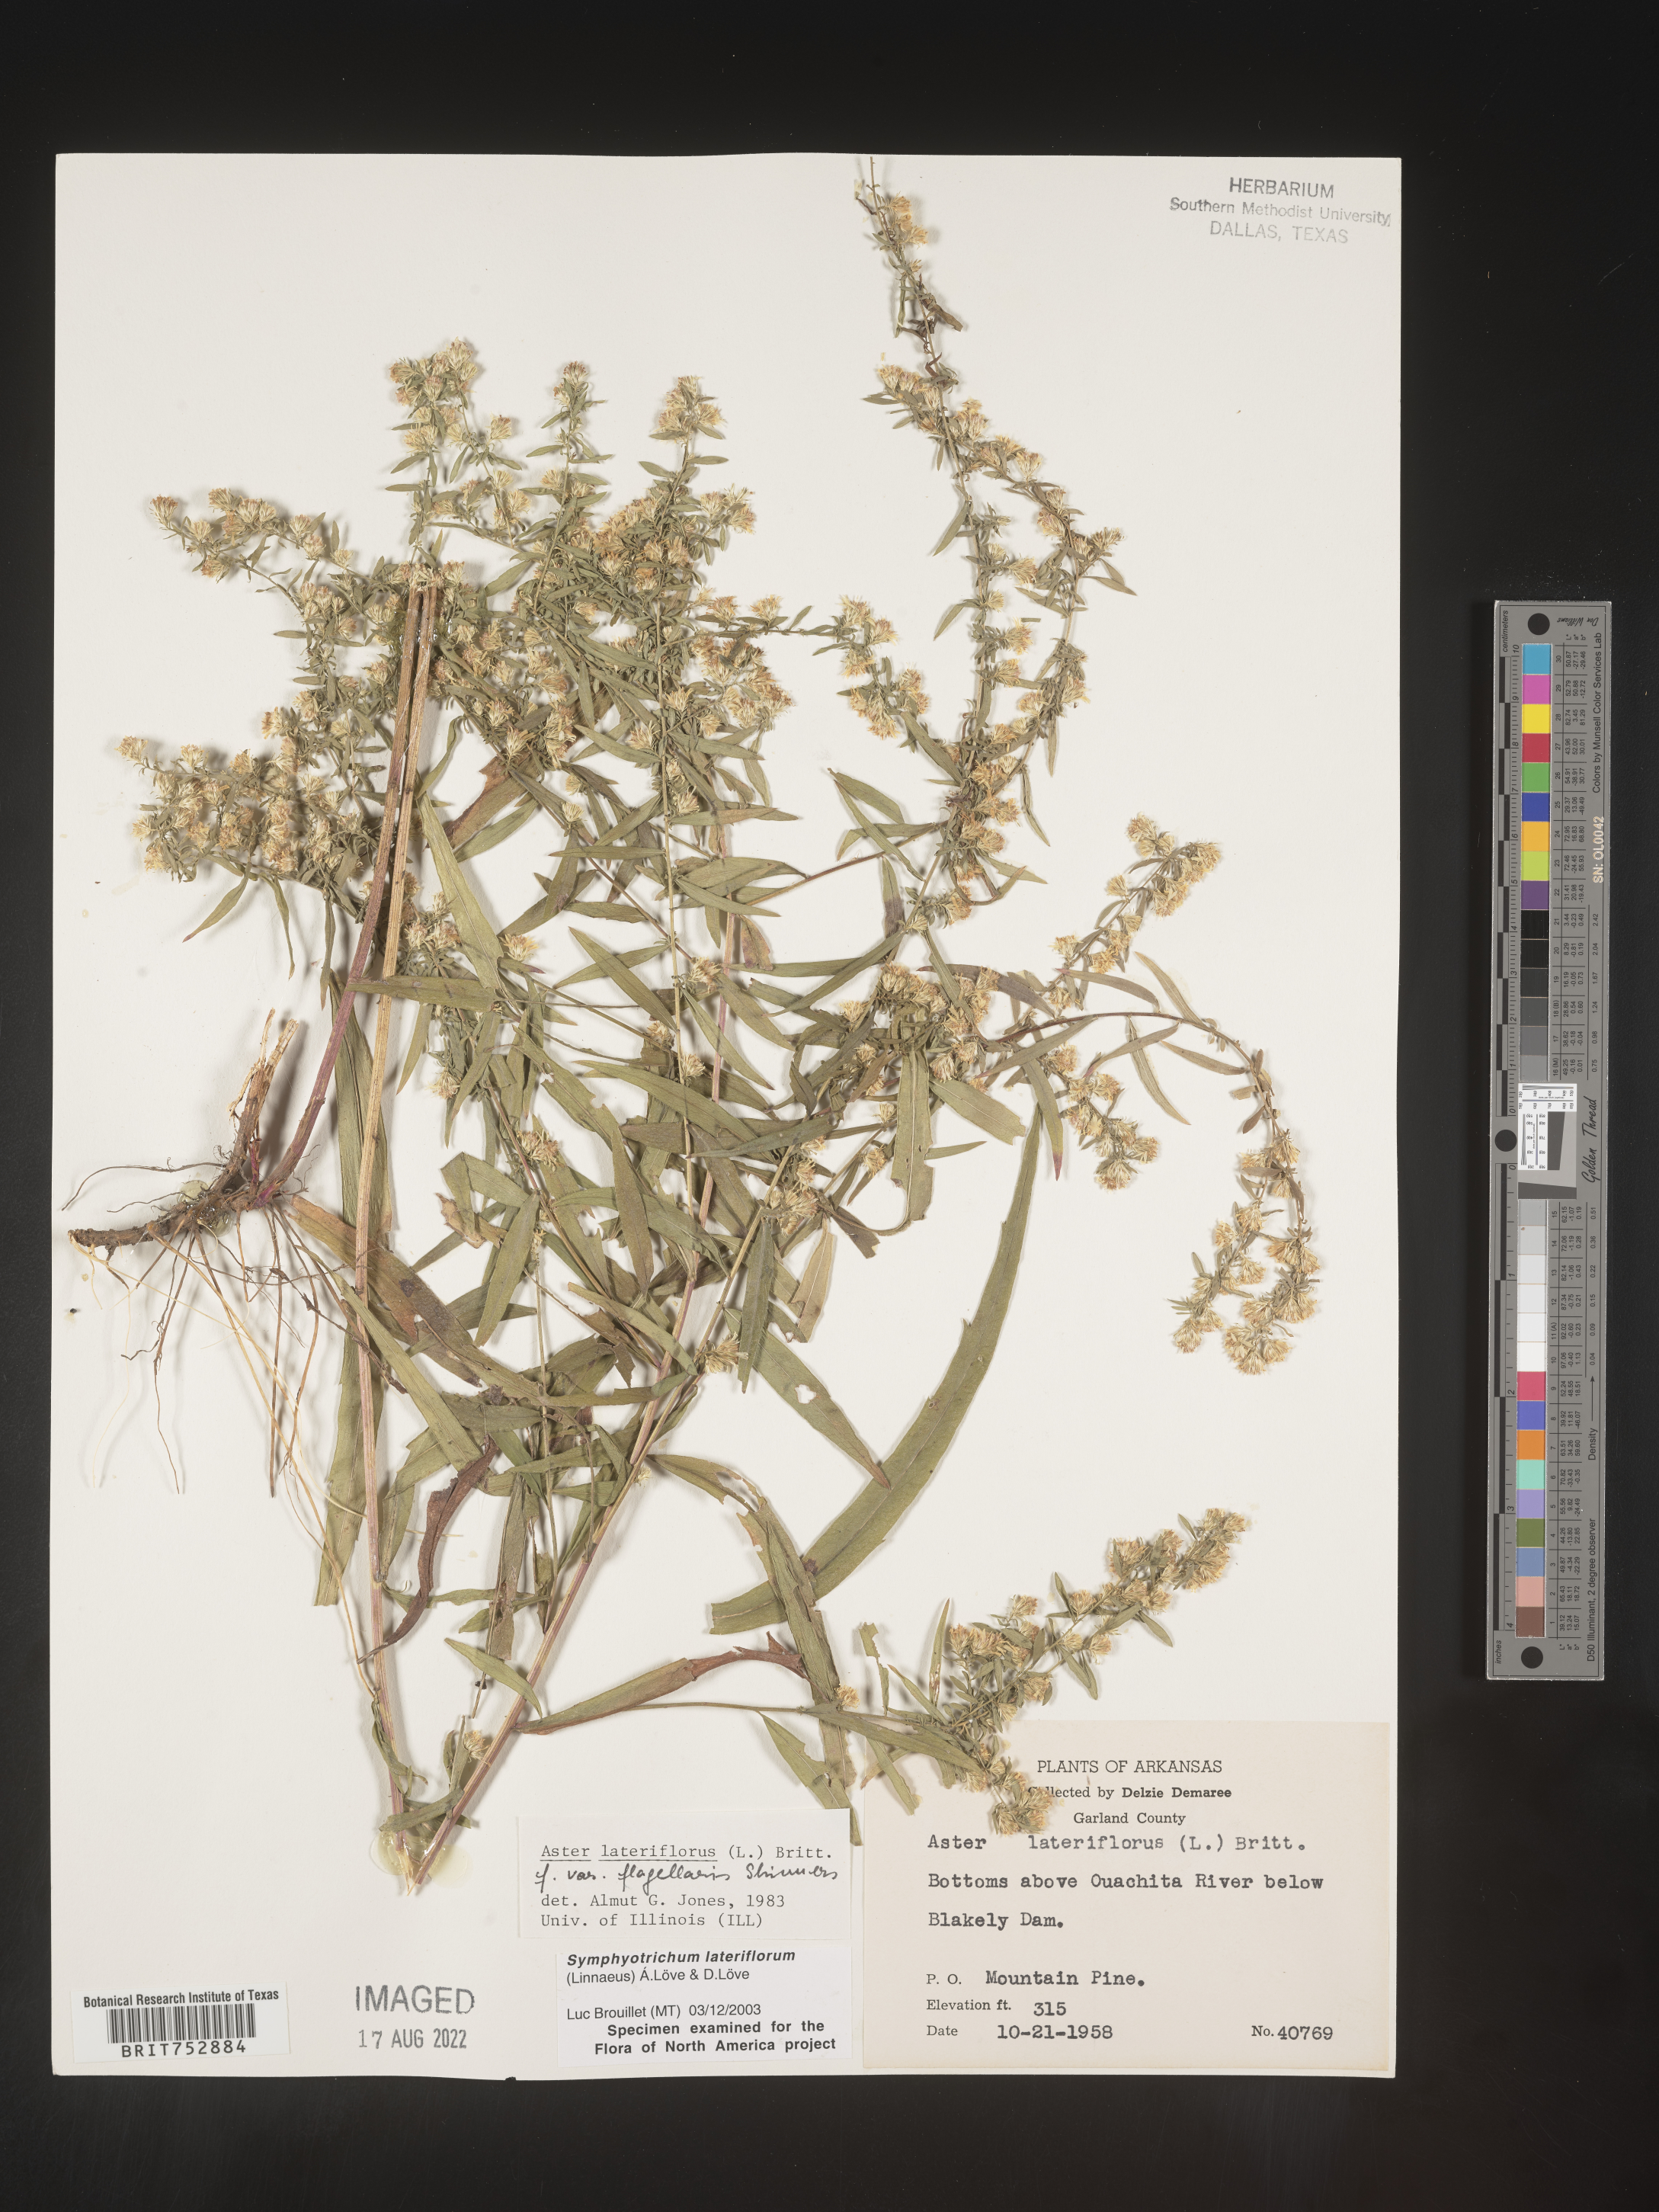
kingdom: Plantae
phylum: Tracheophyta
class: Magnoliopsida
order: Asterales
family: Asteraceae
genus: Symphyotrichum
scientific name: Symphyotrichum lateriflorum
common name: Calico aster
